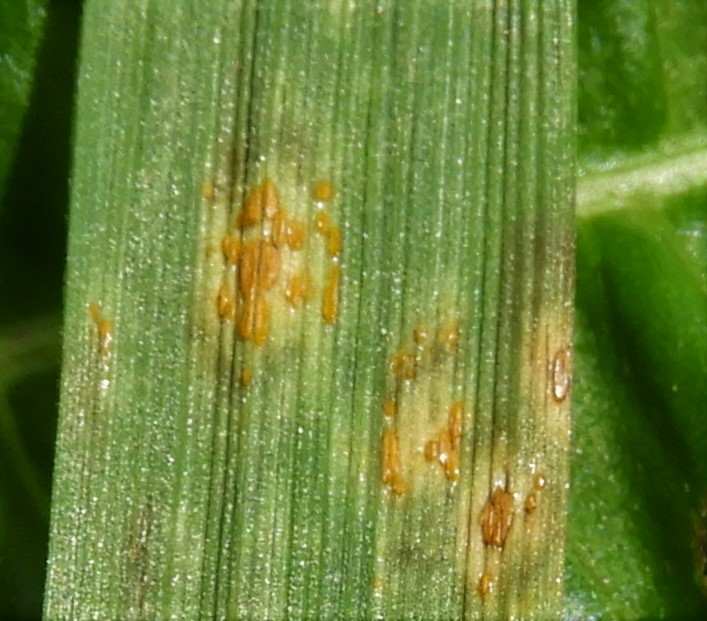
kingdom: Fungi
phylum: Basidiomycota
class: Pucciniomycetes
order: Pucciniales
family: Pucciniaceae
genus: Puccinia
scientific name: Puccinia
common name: tvecellerust
